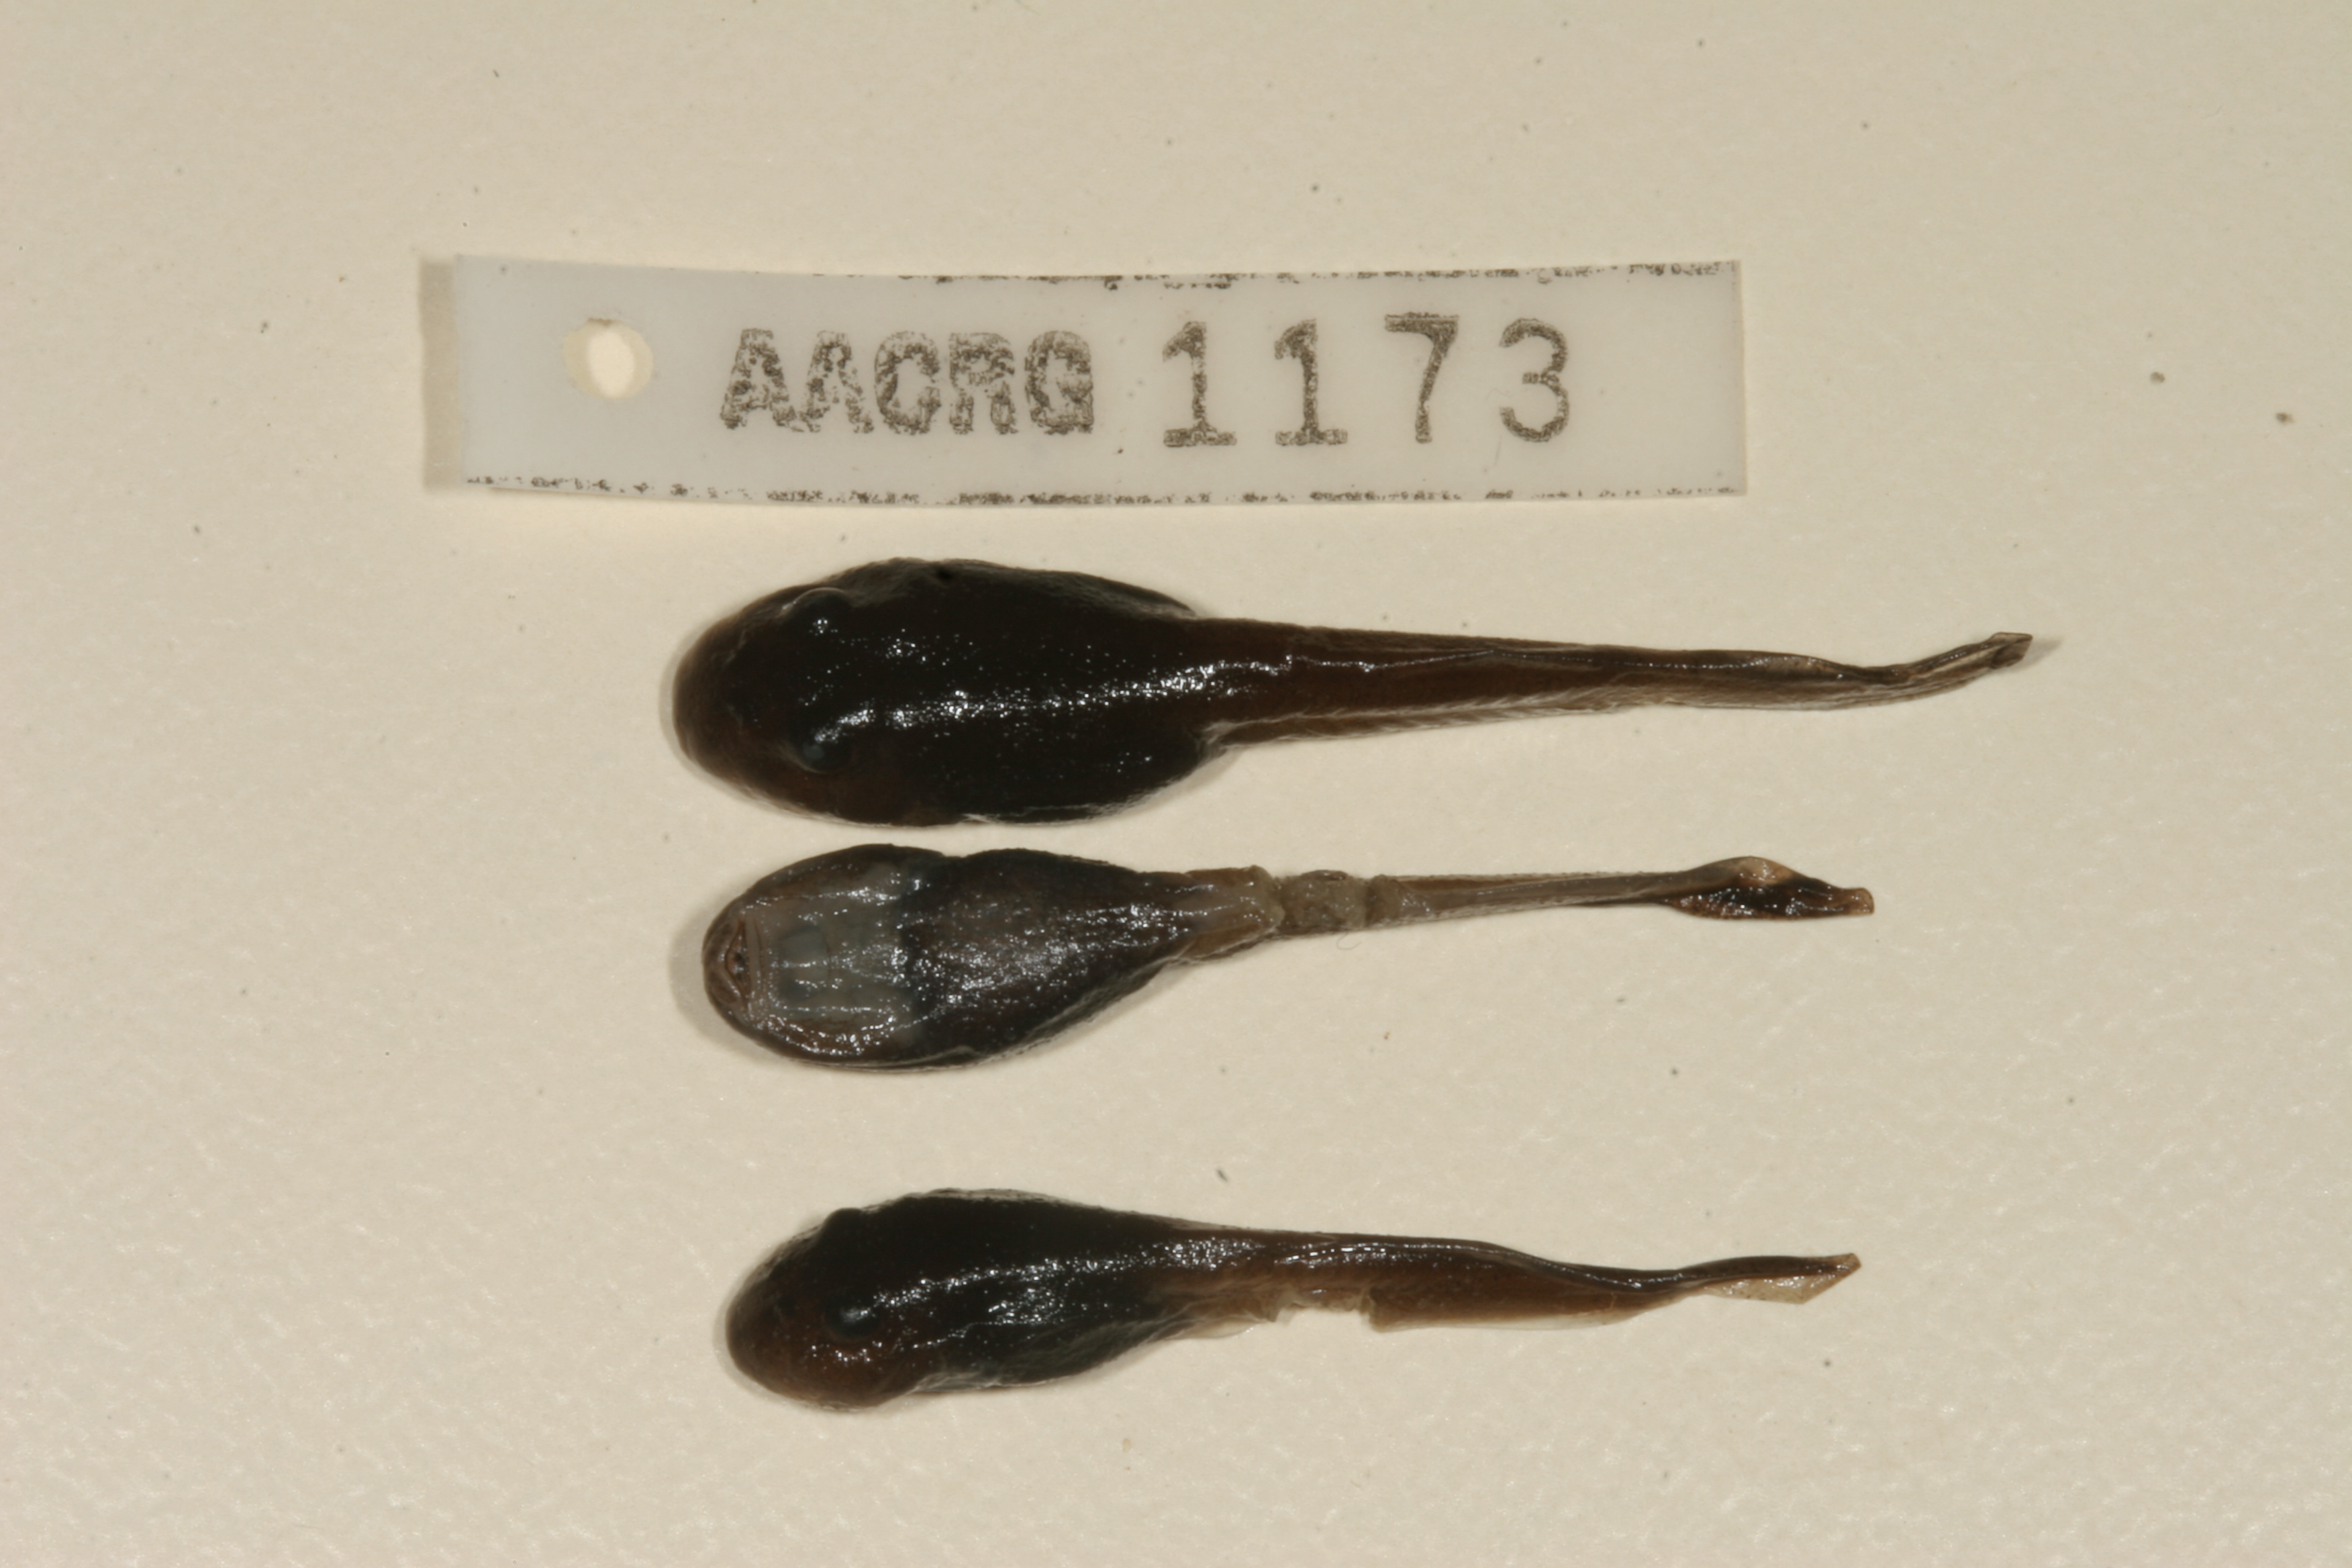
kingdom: Animalia
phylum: Chordata
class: Amphibia
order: Anura
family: Pyxicephalidae
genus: Amietia
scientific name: Amietia vertebralis
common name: Drakensberg stream frog
